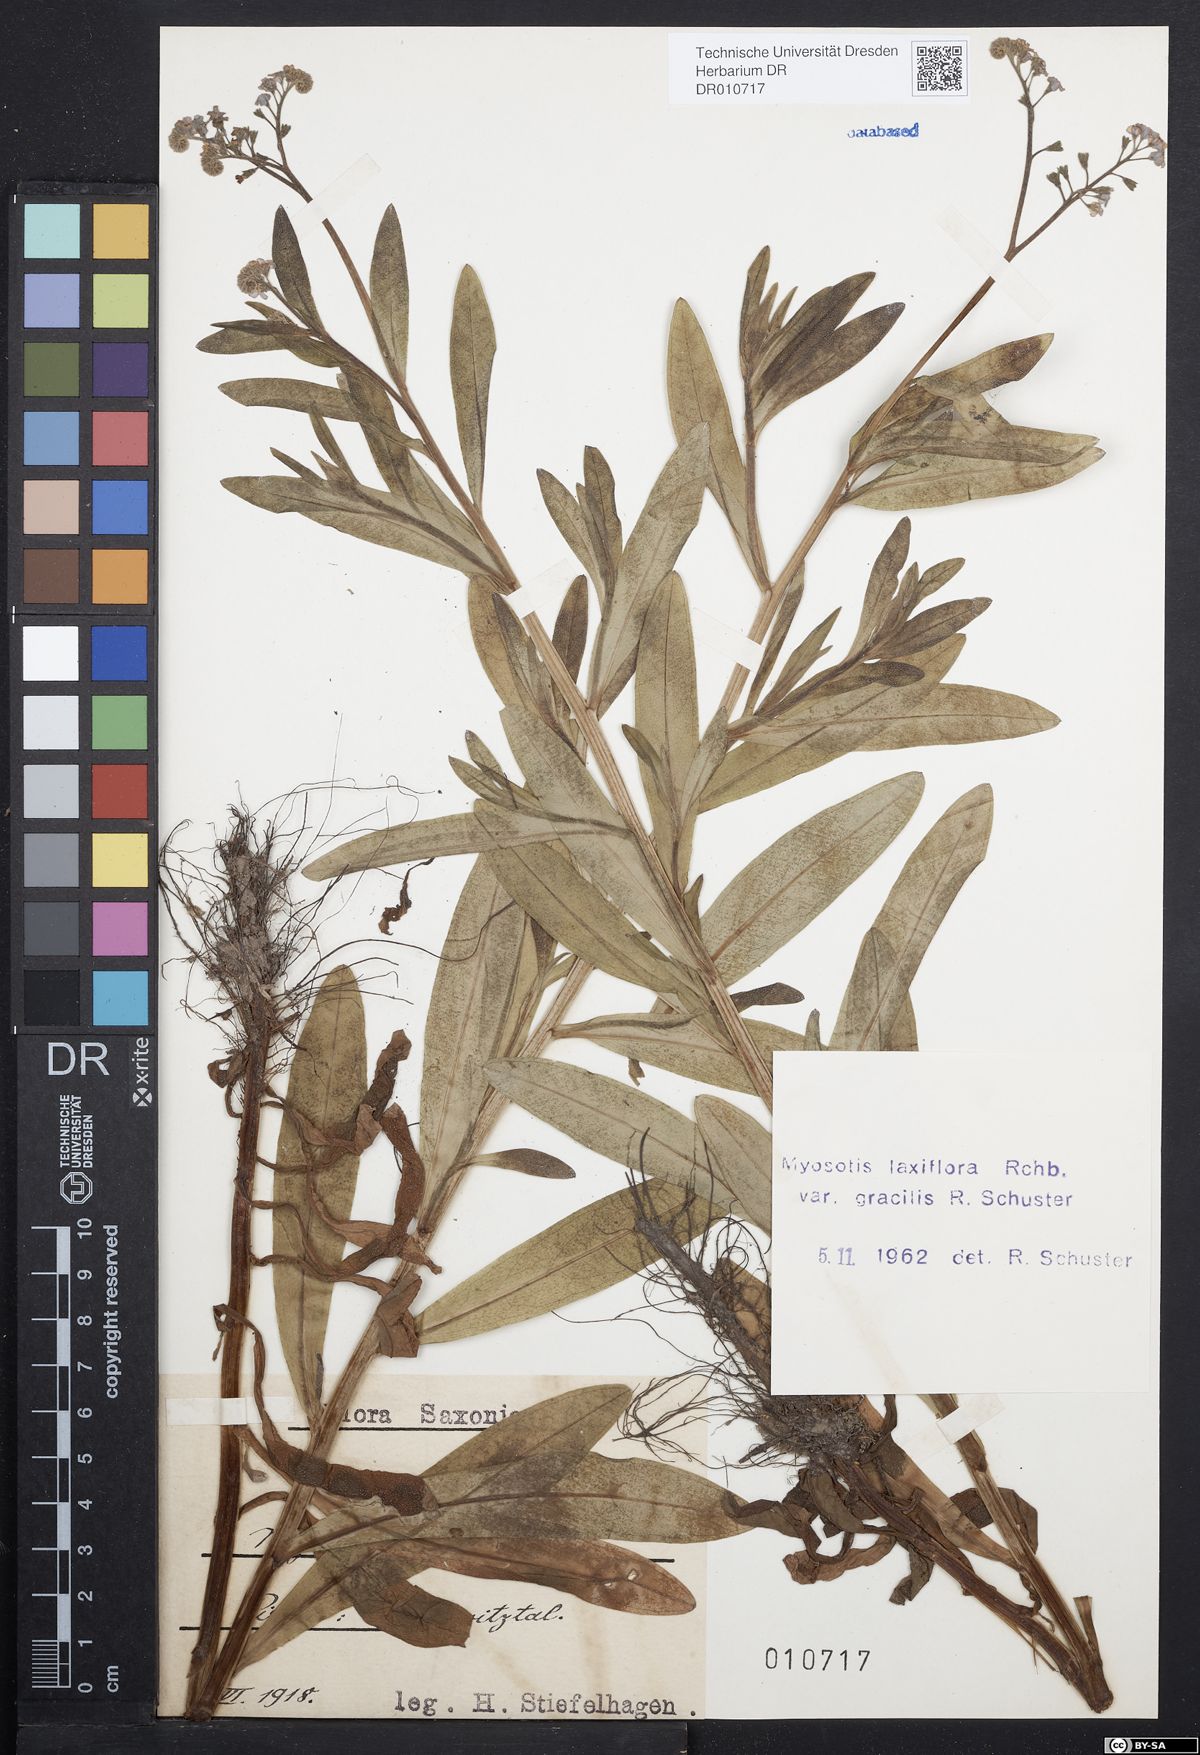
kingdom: Plantae
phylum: Tracheophyta
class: Magnoliopsida
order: Boraginales
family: Boraginaceae
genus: Myosotis
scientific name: Myosotis scorpioides
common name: Water forget-me-not
